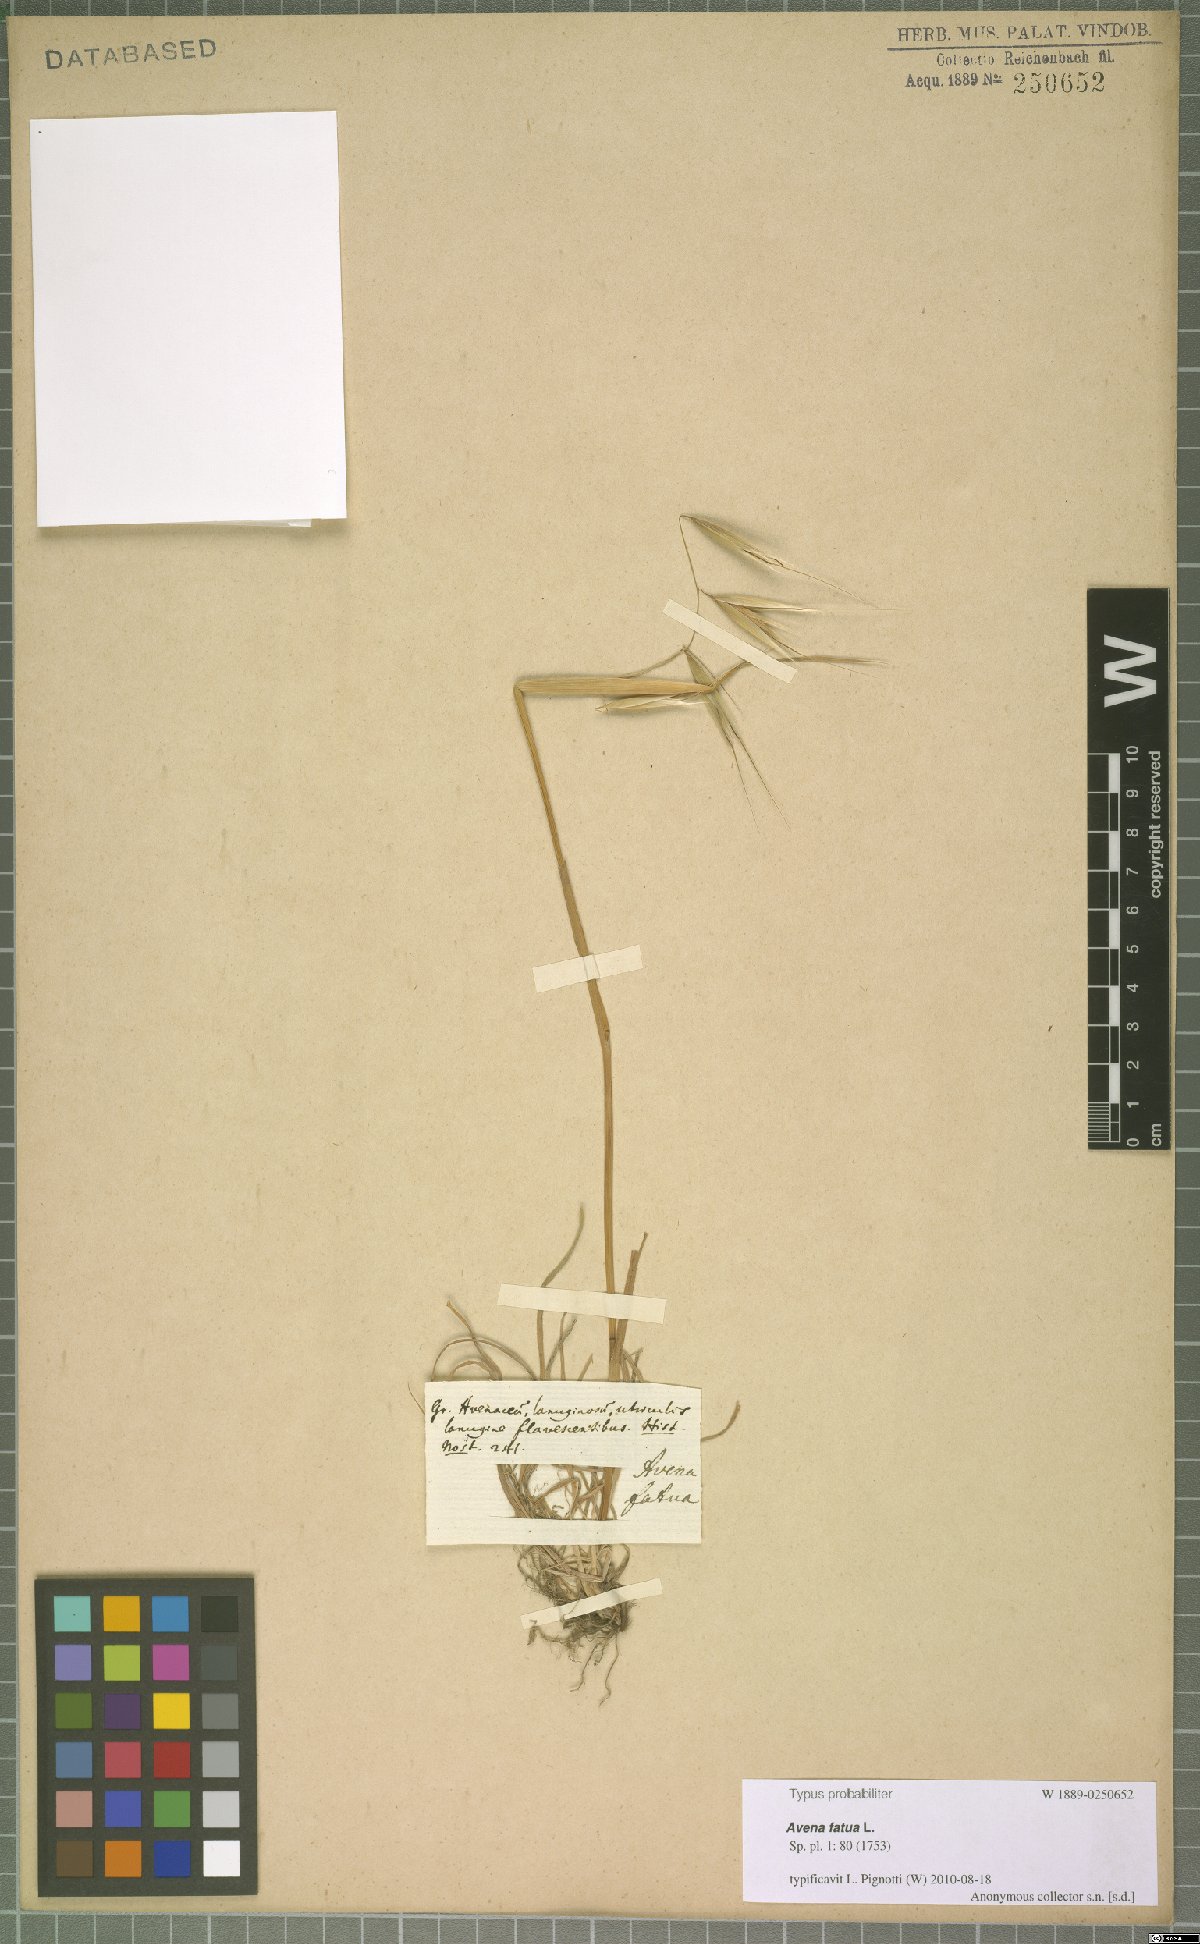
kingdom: Plantae
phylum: Tracheophyta
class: Liliopsida
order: Poales
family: Poaceae
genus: Avena
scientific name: Avena fatua
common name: Wild oat
